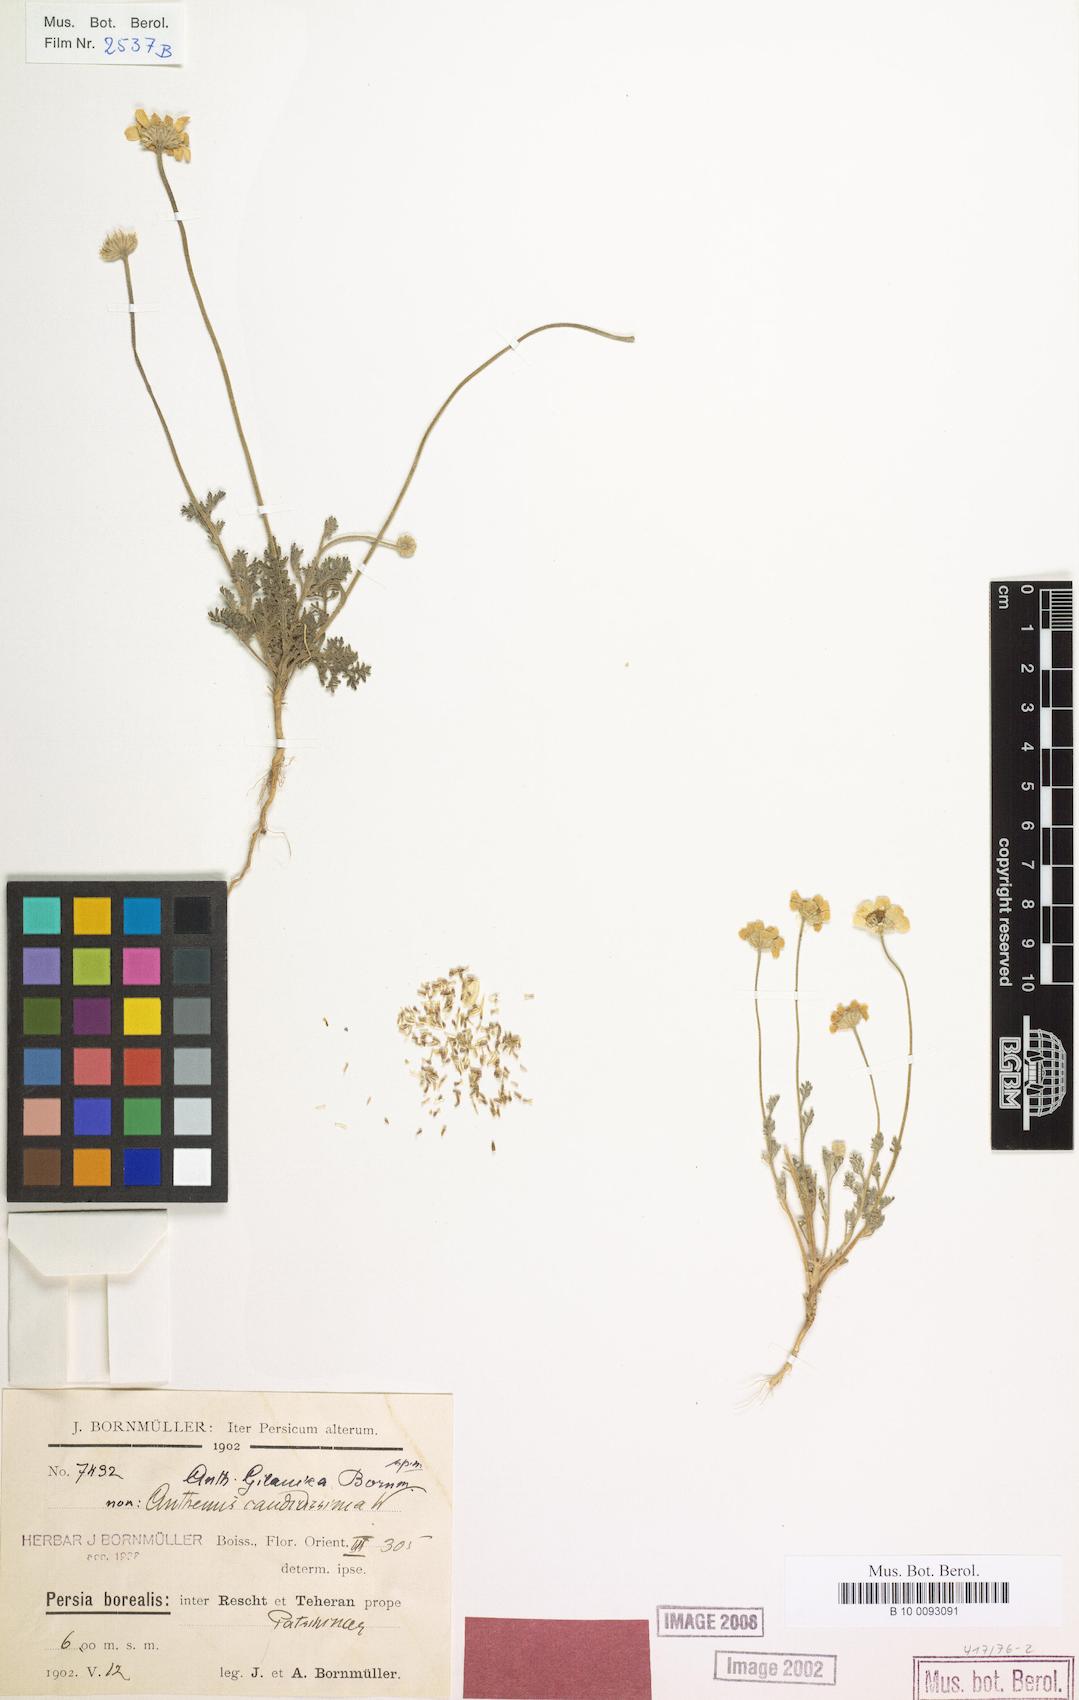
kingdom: Plantae
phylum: Tracheophyta
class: Magnoliopsida
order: Asterales
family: Asteraceae
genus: Anthemis
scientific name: Anthemis gilanica
